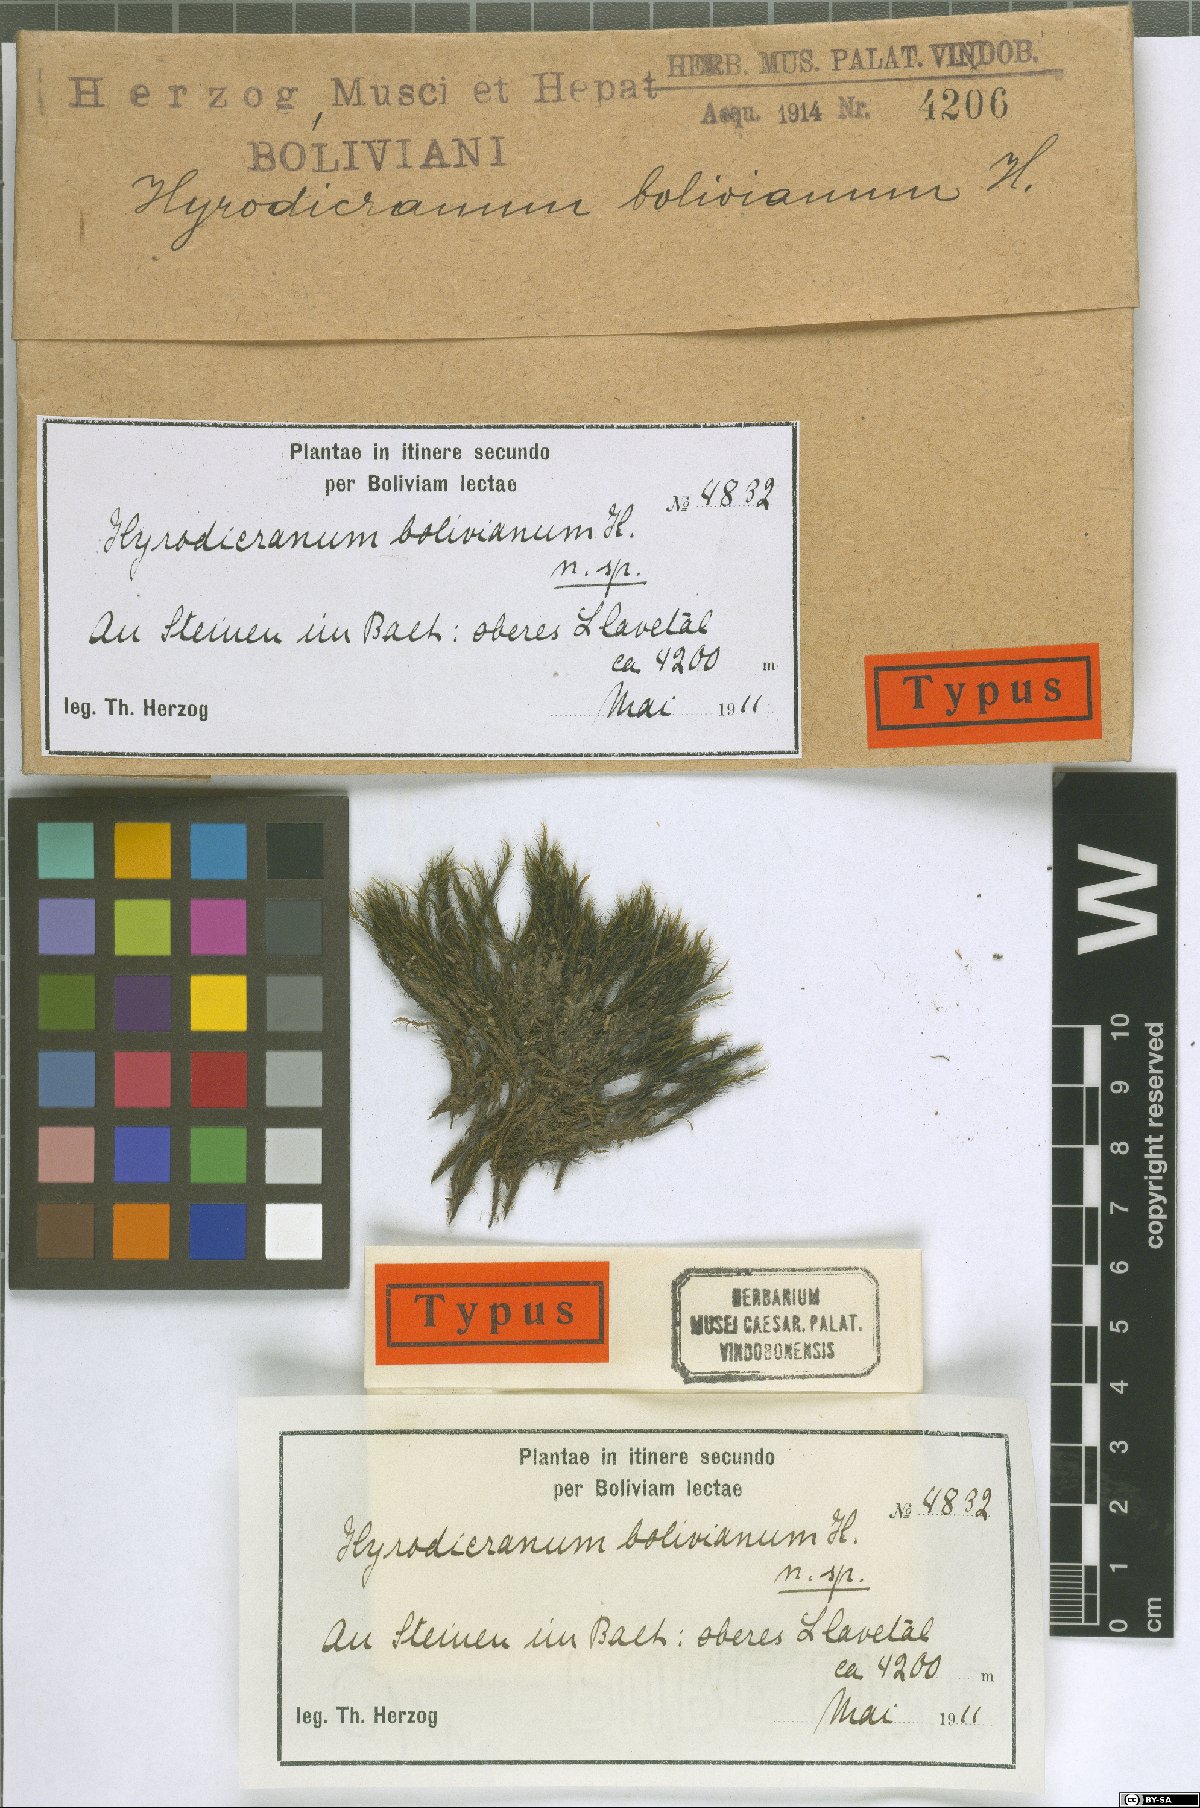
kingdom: Plantae
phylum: Bryophyta
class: Bryopsida
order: Dicranales
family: Aongstroemiaceae
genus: Hygrodicranum
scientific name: Hygrodicranum bolivianum
